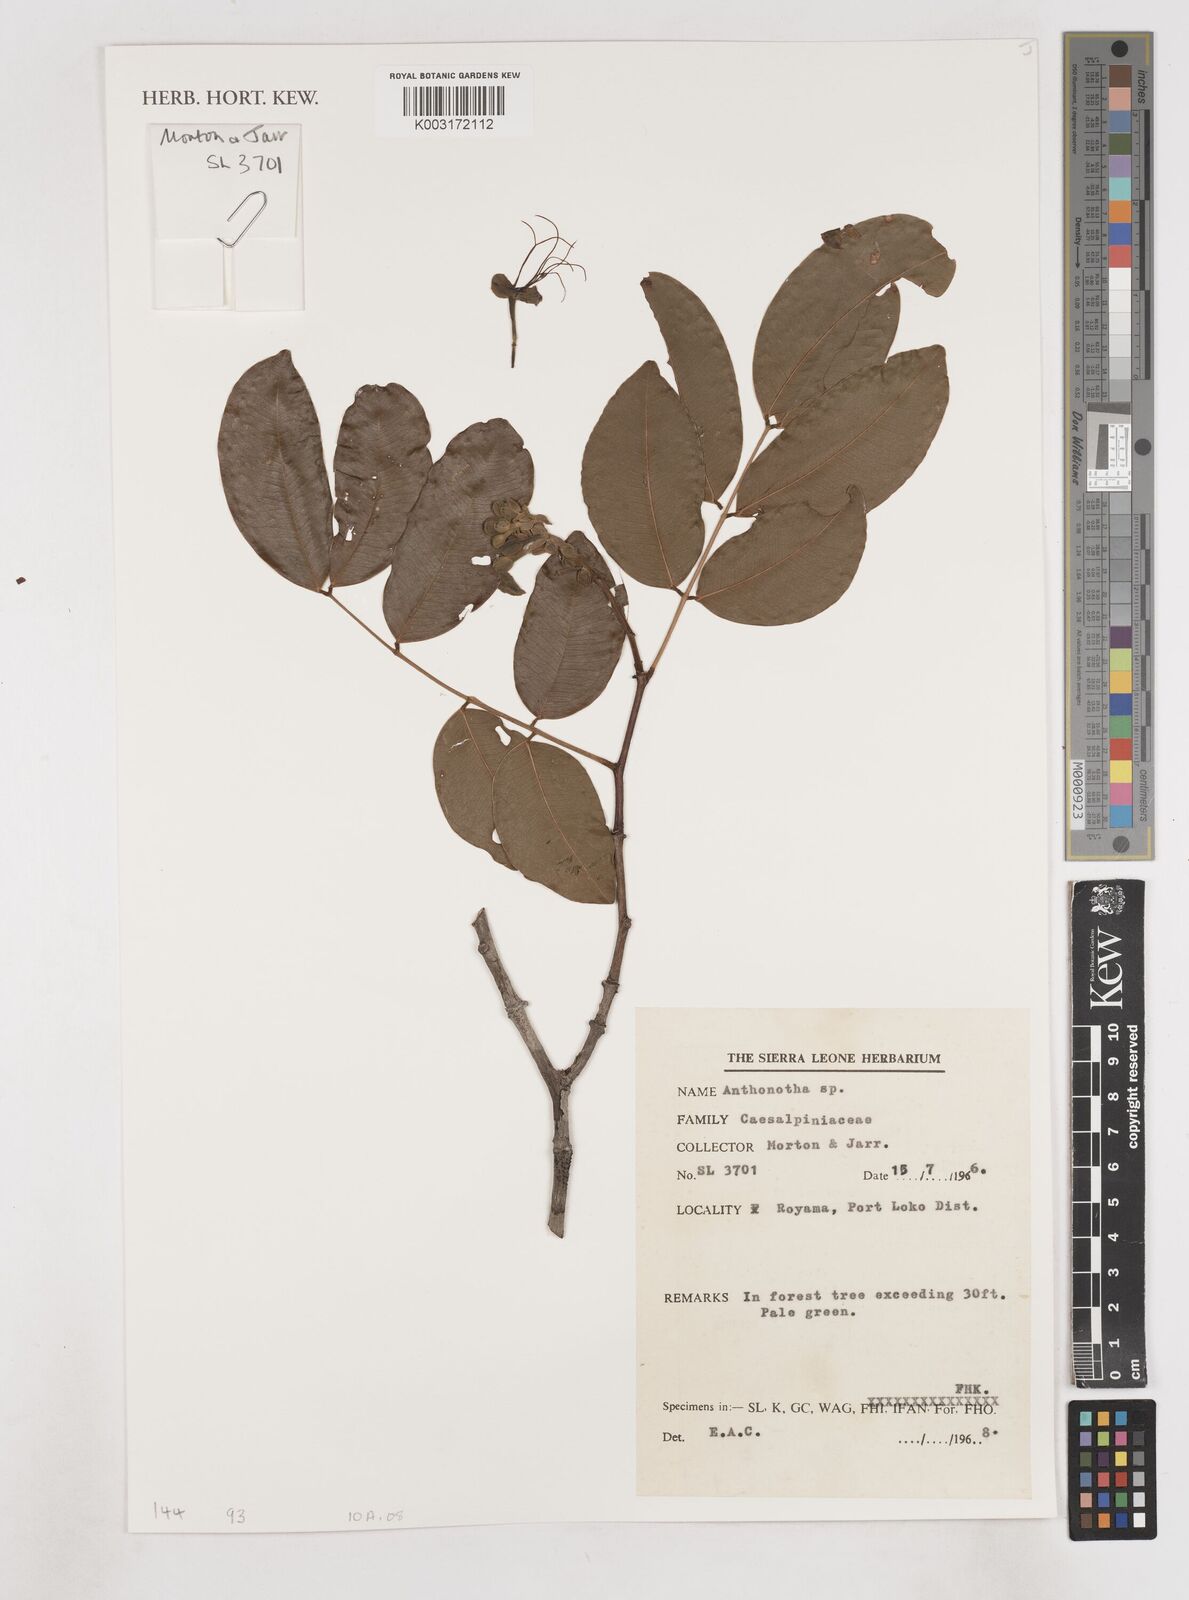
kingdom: Plantae
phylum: Tracheophyta
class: Magnoliopsida
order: Fabales
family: Fabaceae
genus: Anthonotha
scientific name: Anthonotha
